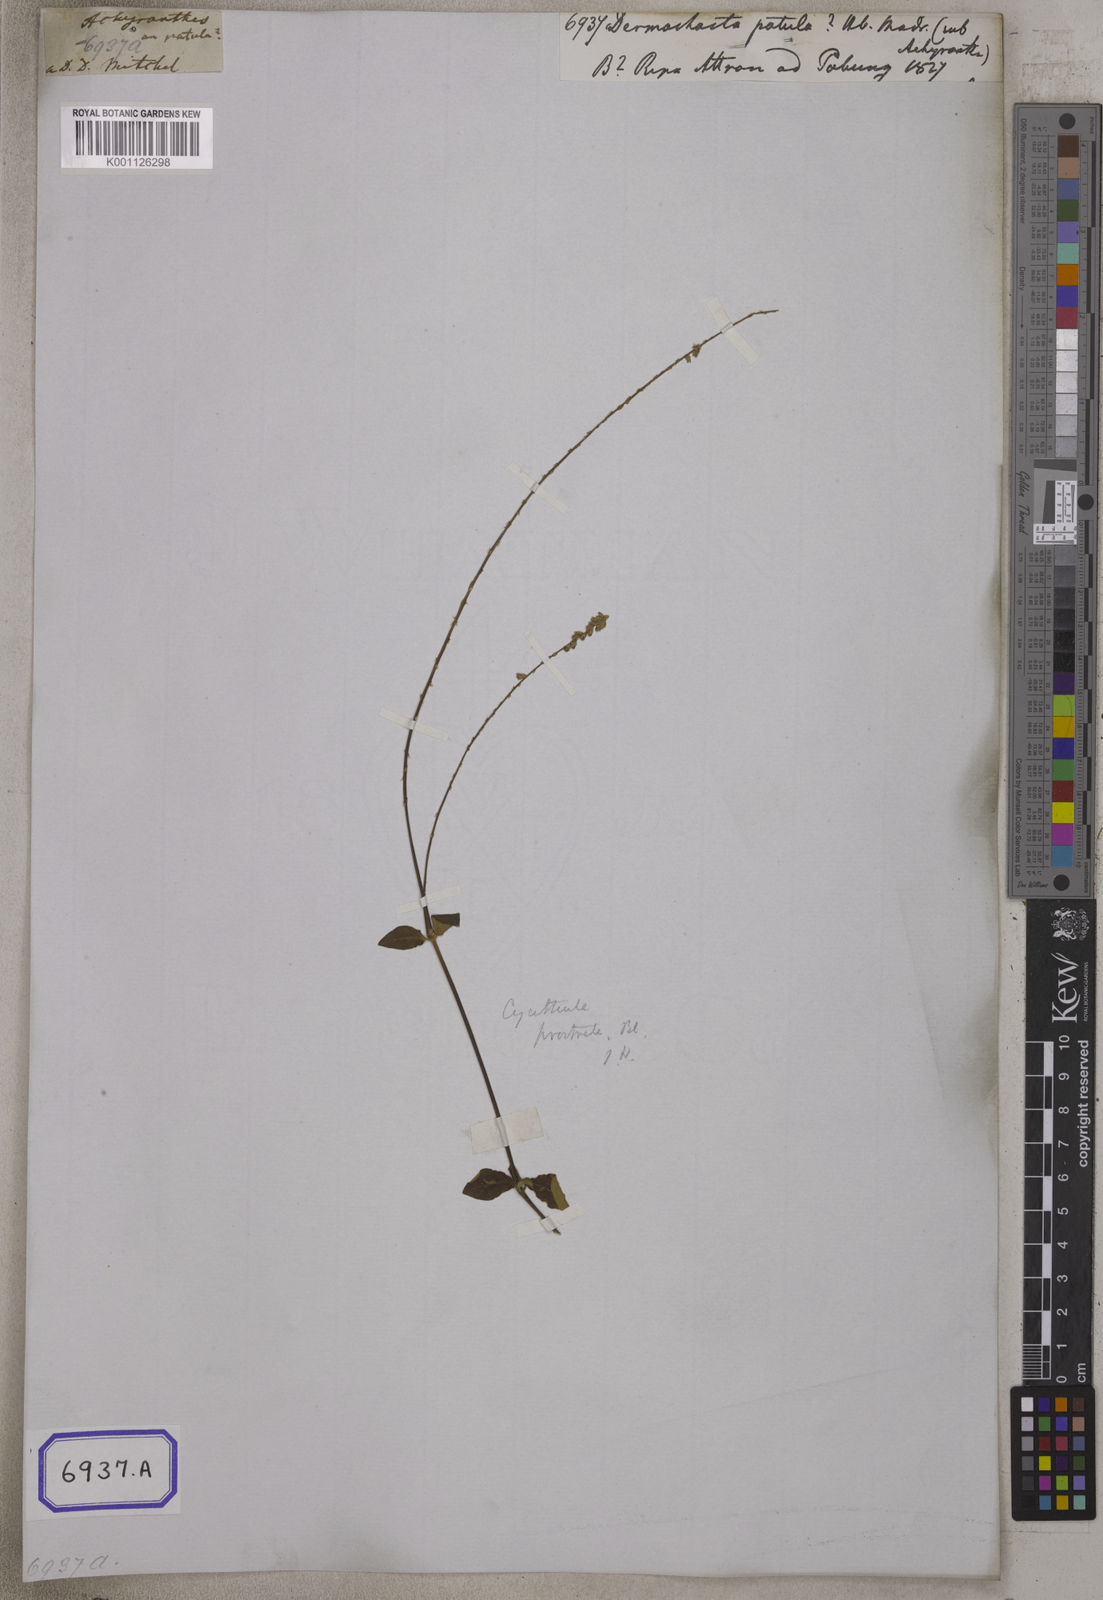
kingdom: Plantae
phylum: Tracheophyta
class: Magnoliopsida
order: Caryophyllales
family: Amaranthaceae
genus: Pupalia
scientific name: Pupalia
